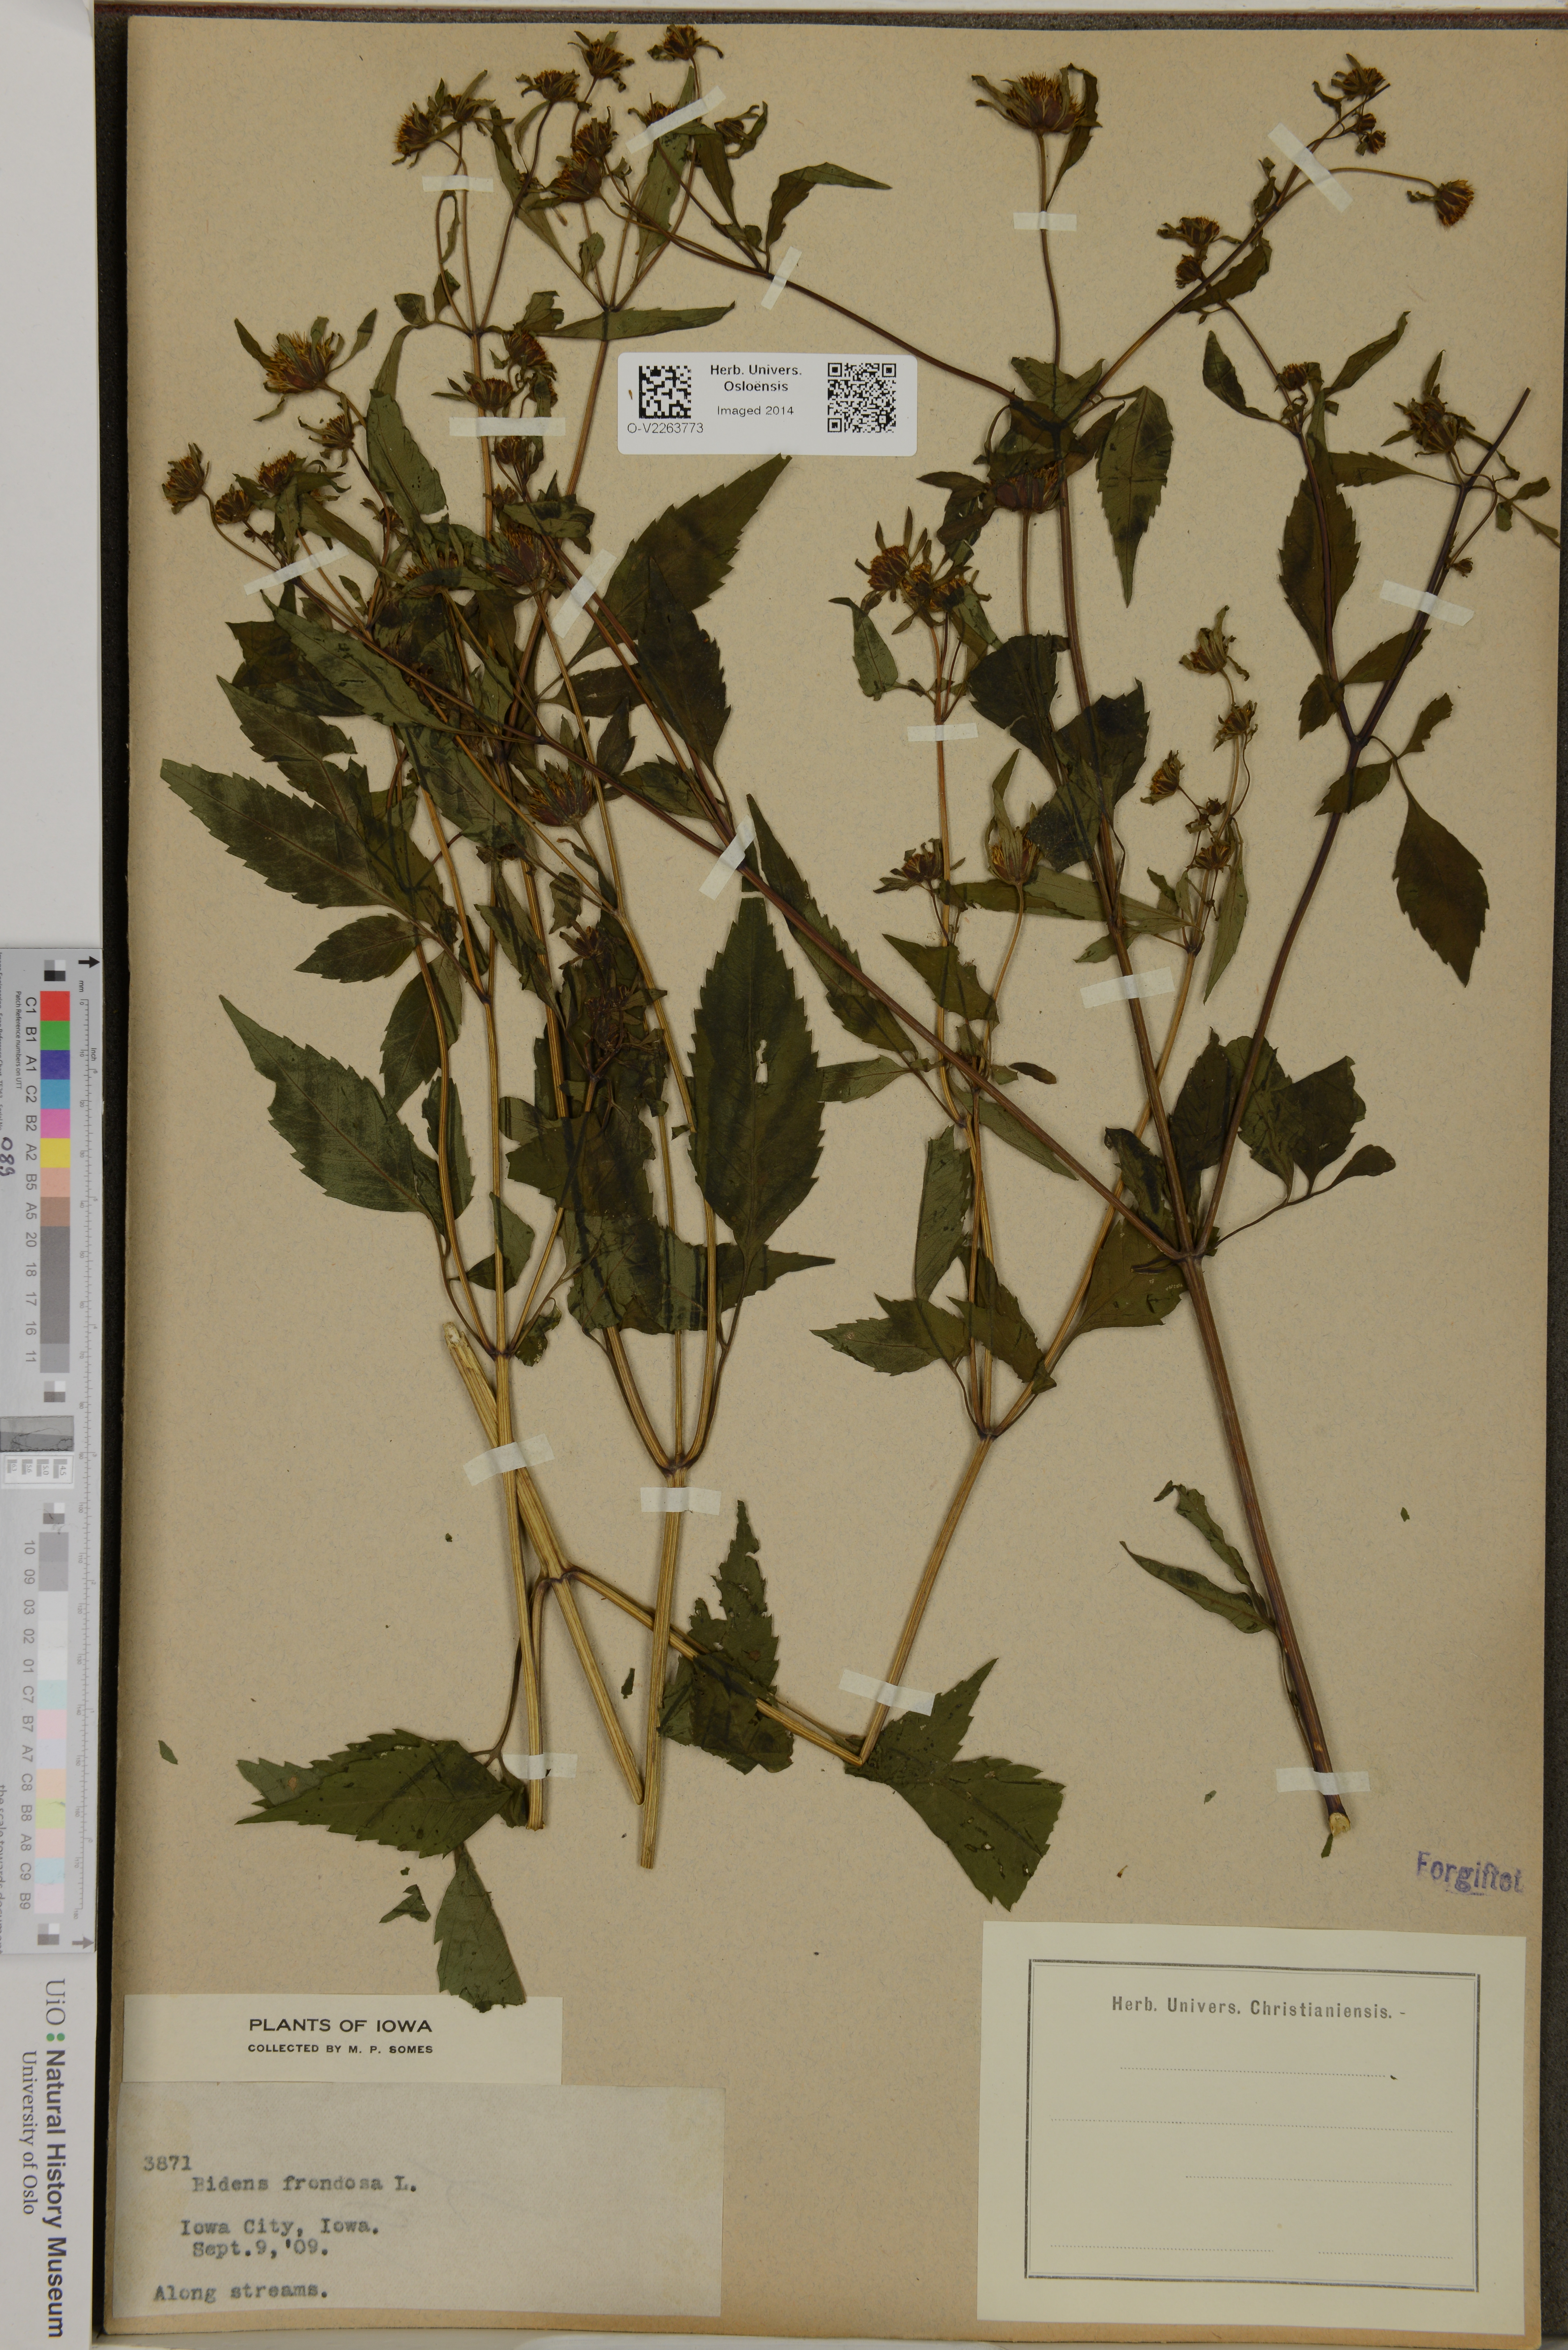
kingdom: Plantae
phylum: Tracheophyta
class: Magnoliopsida
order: Asterales
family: Asteraceae
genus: Bidens
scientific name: Bidens frondosa
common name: Beggarticks
